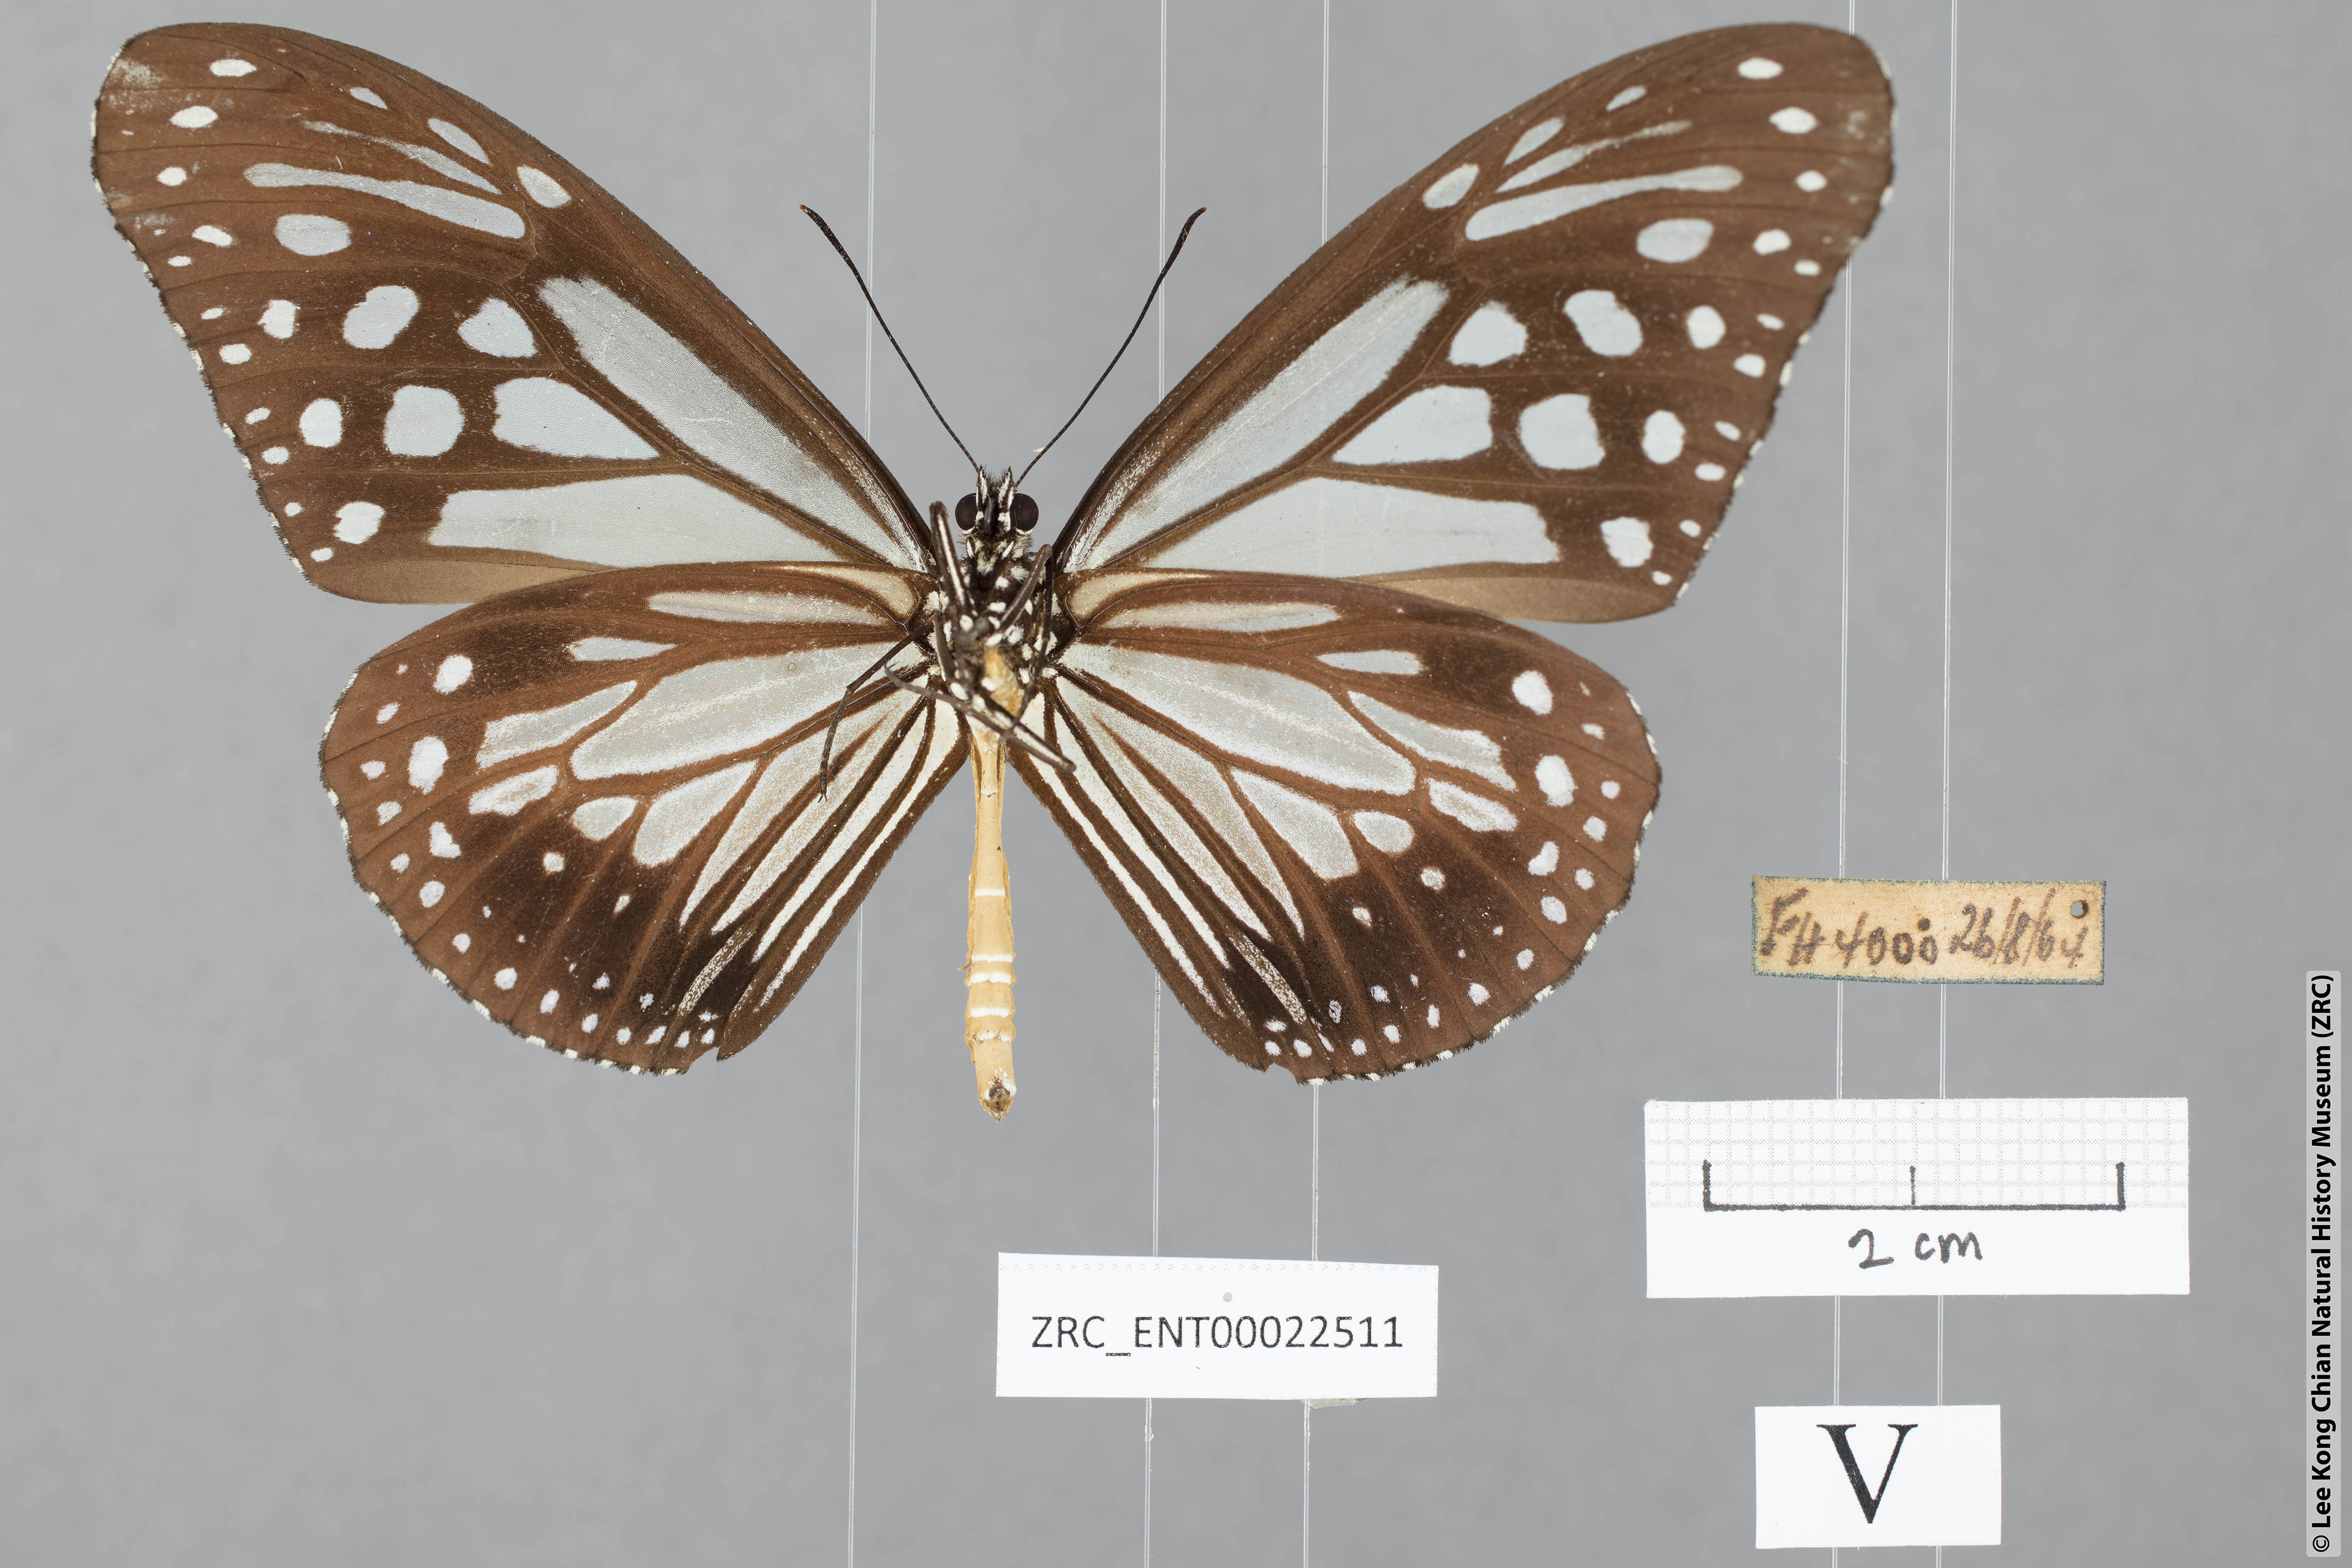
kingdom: Animalia
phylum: Arthropoda
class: Insecta
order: Lepidoptera
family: Nymphalidae
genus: Parantica
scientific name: Parantica melaneus
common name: Chocolate tiger
